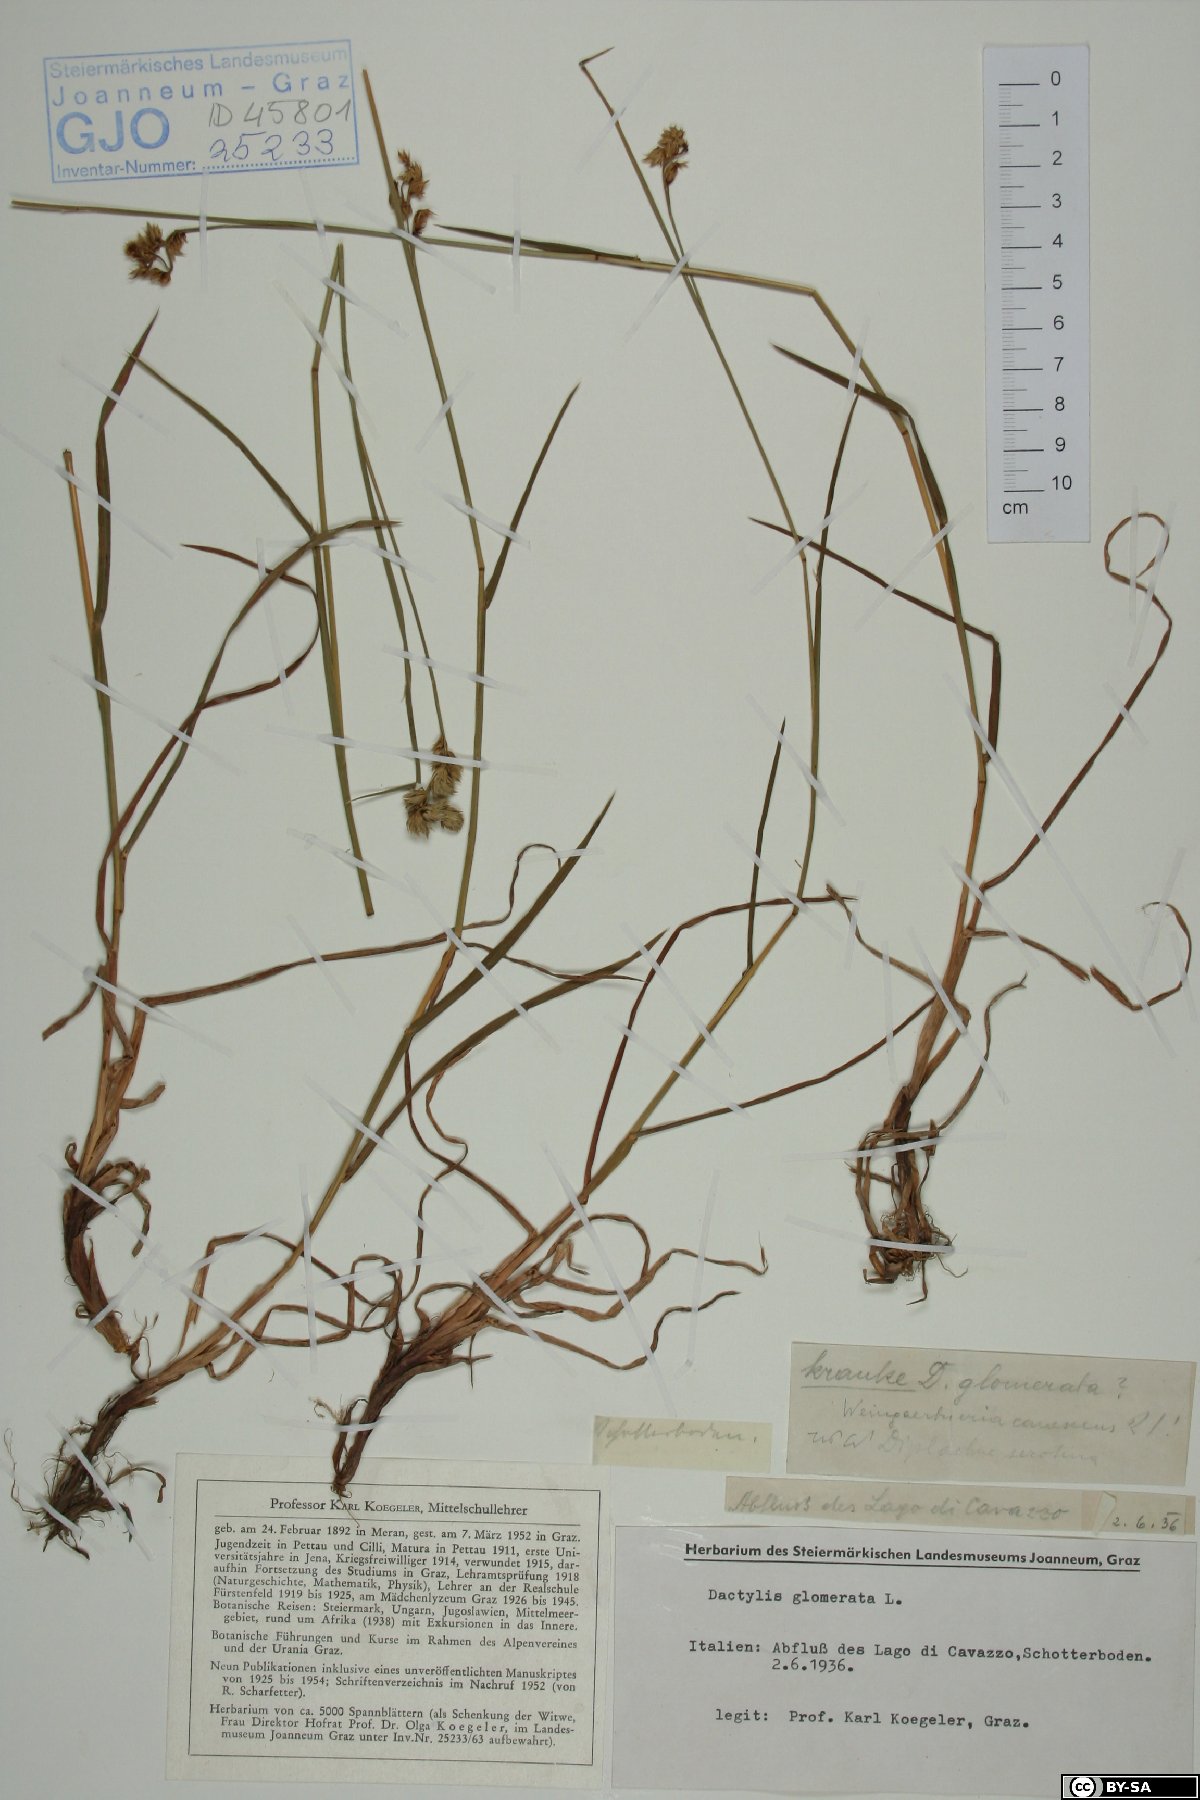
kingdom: Plantae
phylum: Tracheophyta
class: Liliopsida
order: Poales
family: Poaceae
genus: Dactylis
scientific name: Dactylis glomerata
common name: Orchardgrass
